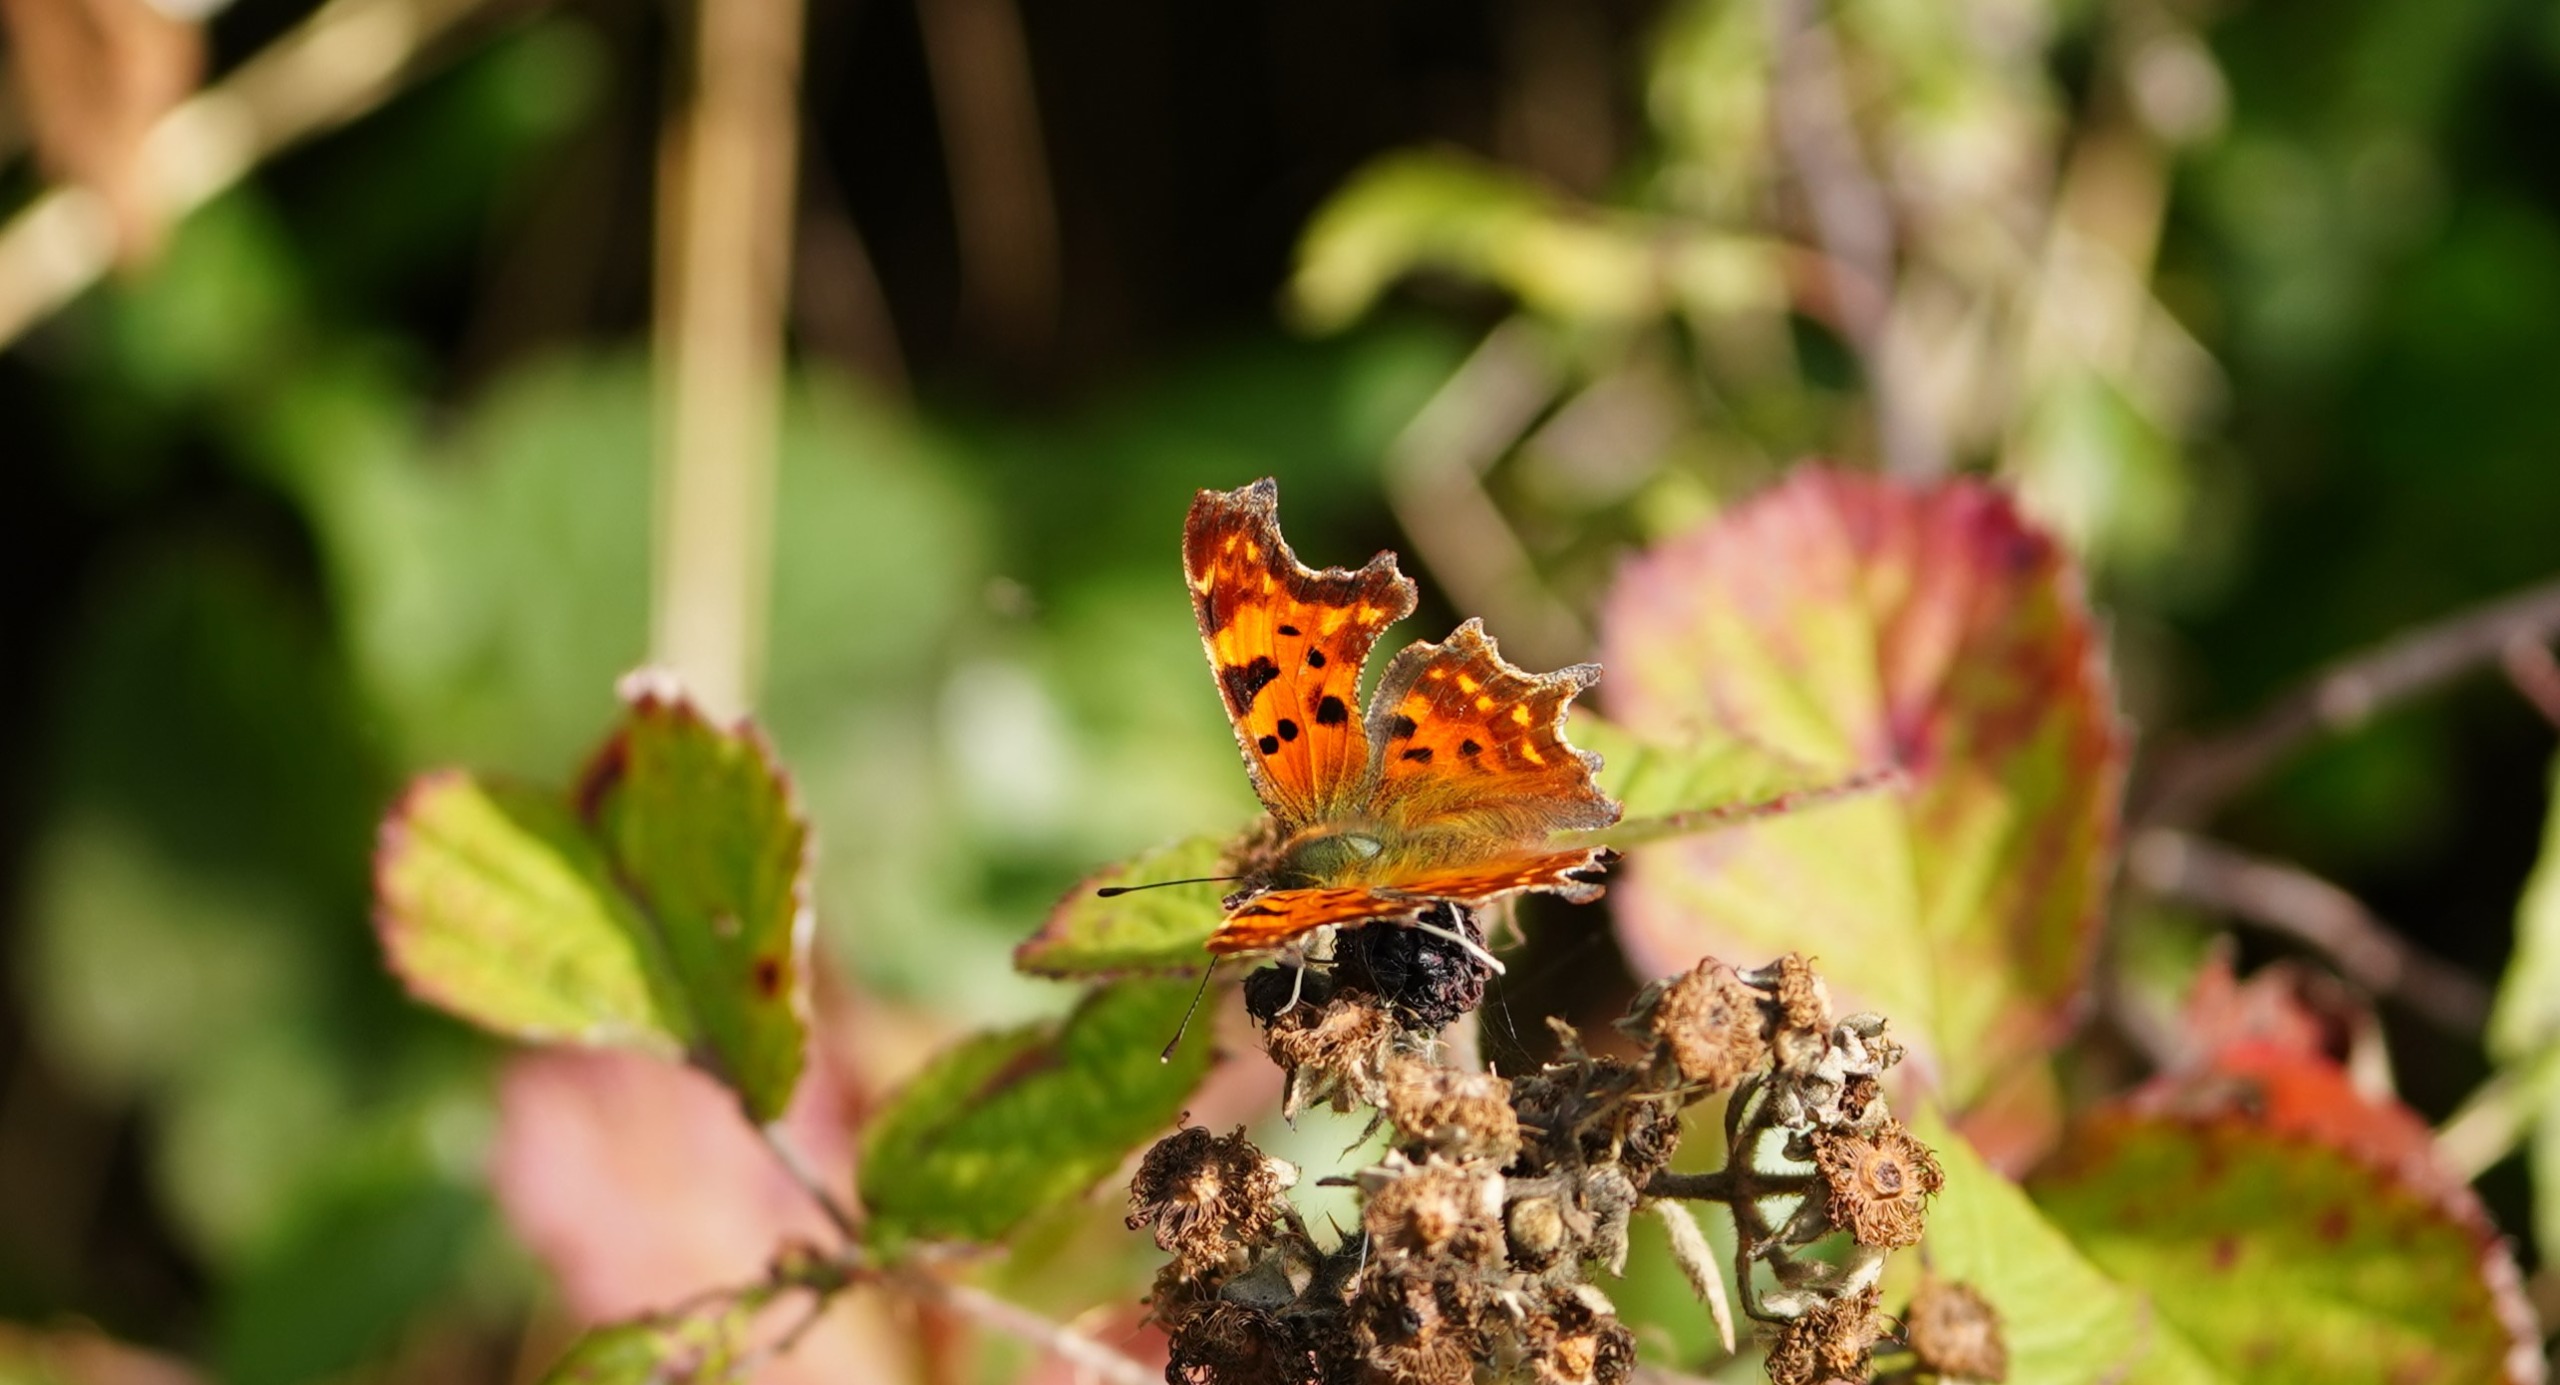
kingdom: Animalia
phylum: Arthropoda
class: Insecta
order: Lepidoptera
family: Nymphalidae
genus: Polygonia
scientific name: Polygonia c-album
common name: Det hvide C
